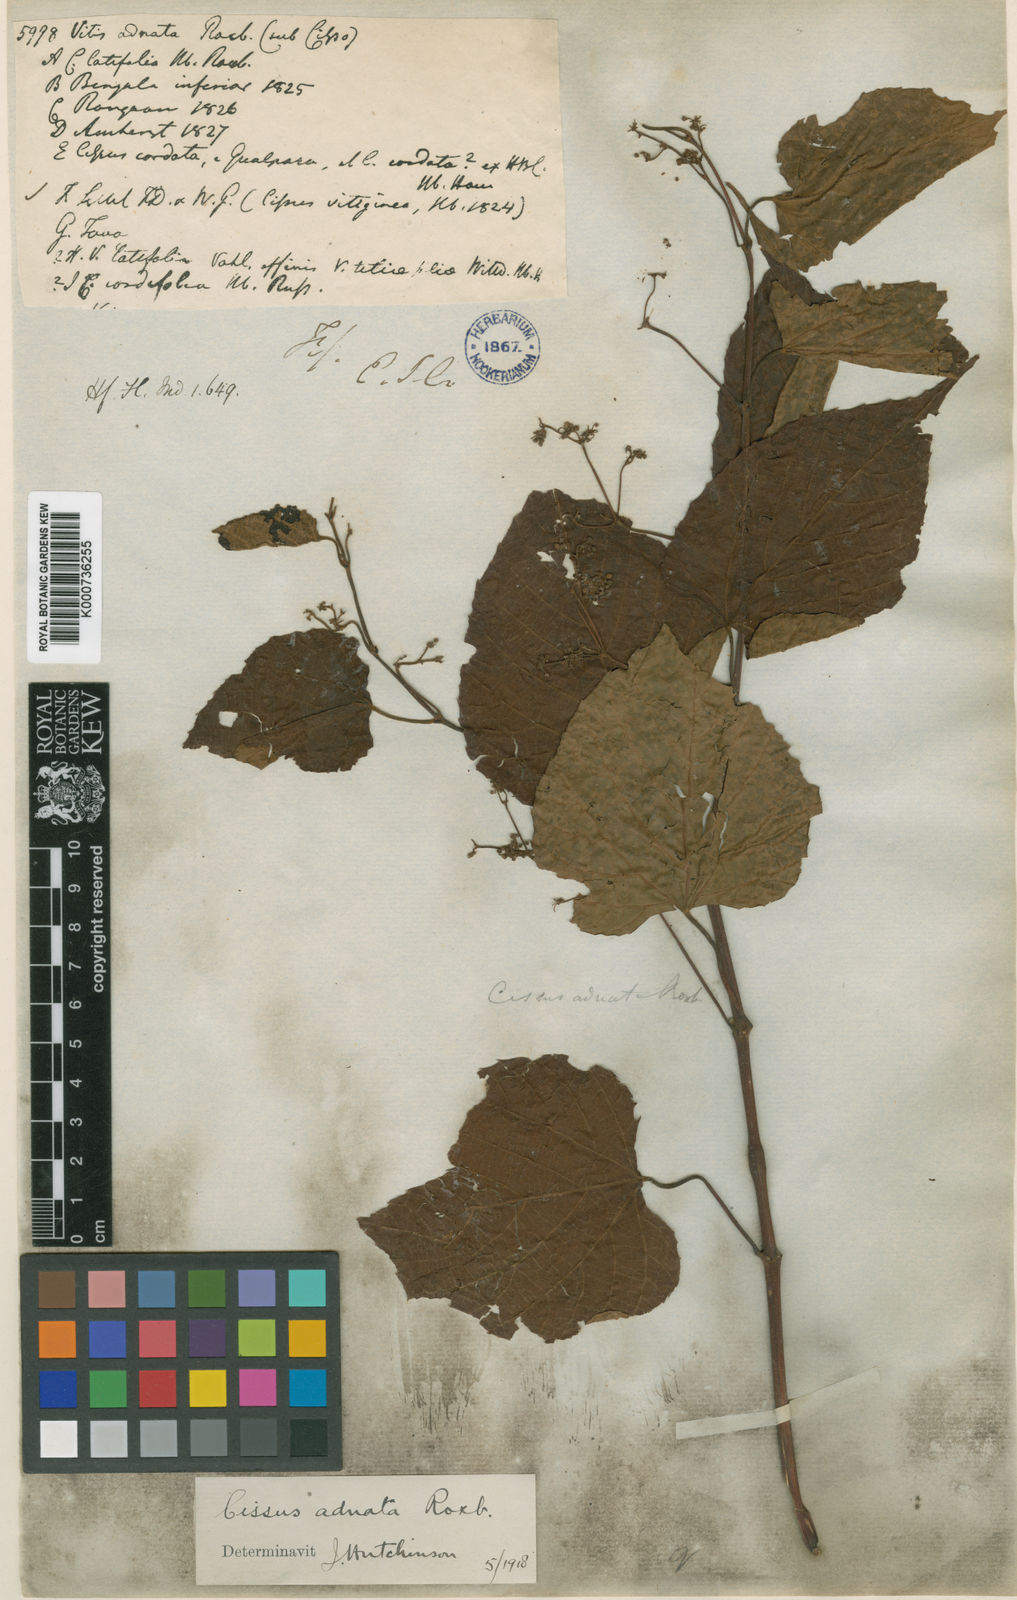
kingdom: Plantae
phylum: Tracheophyta
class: Magnoliopsida
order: Vitales
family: Vitaceae
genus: Cissus
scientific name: Cissus adnata
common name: Heart-leaf-grape
